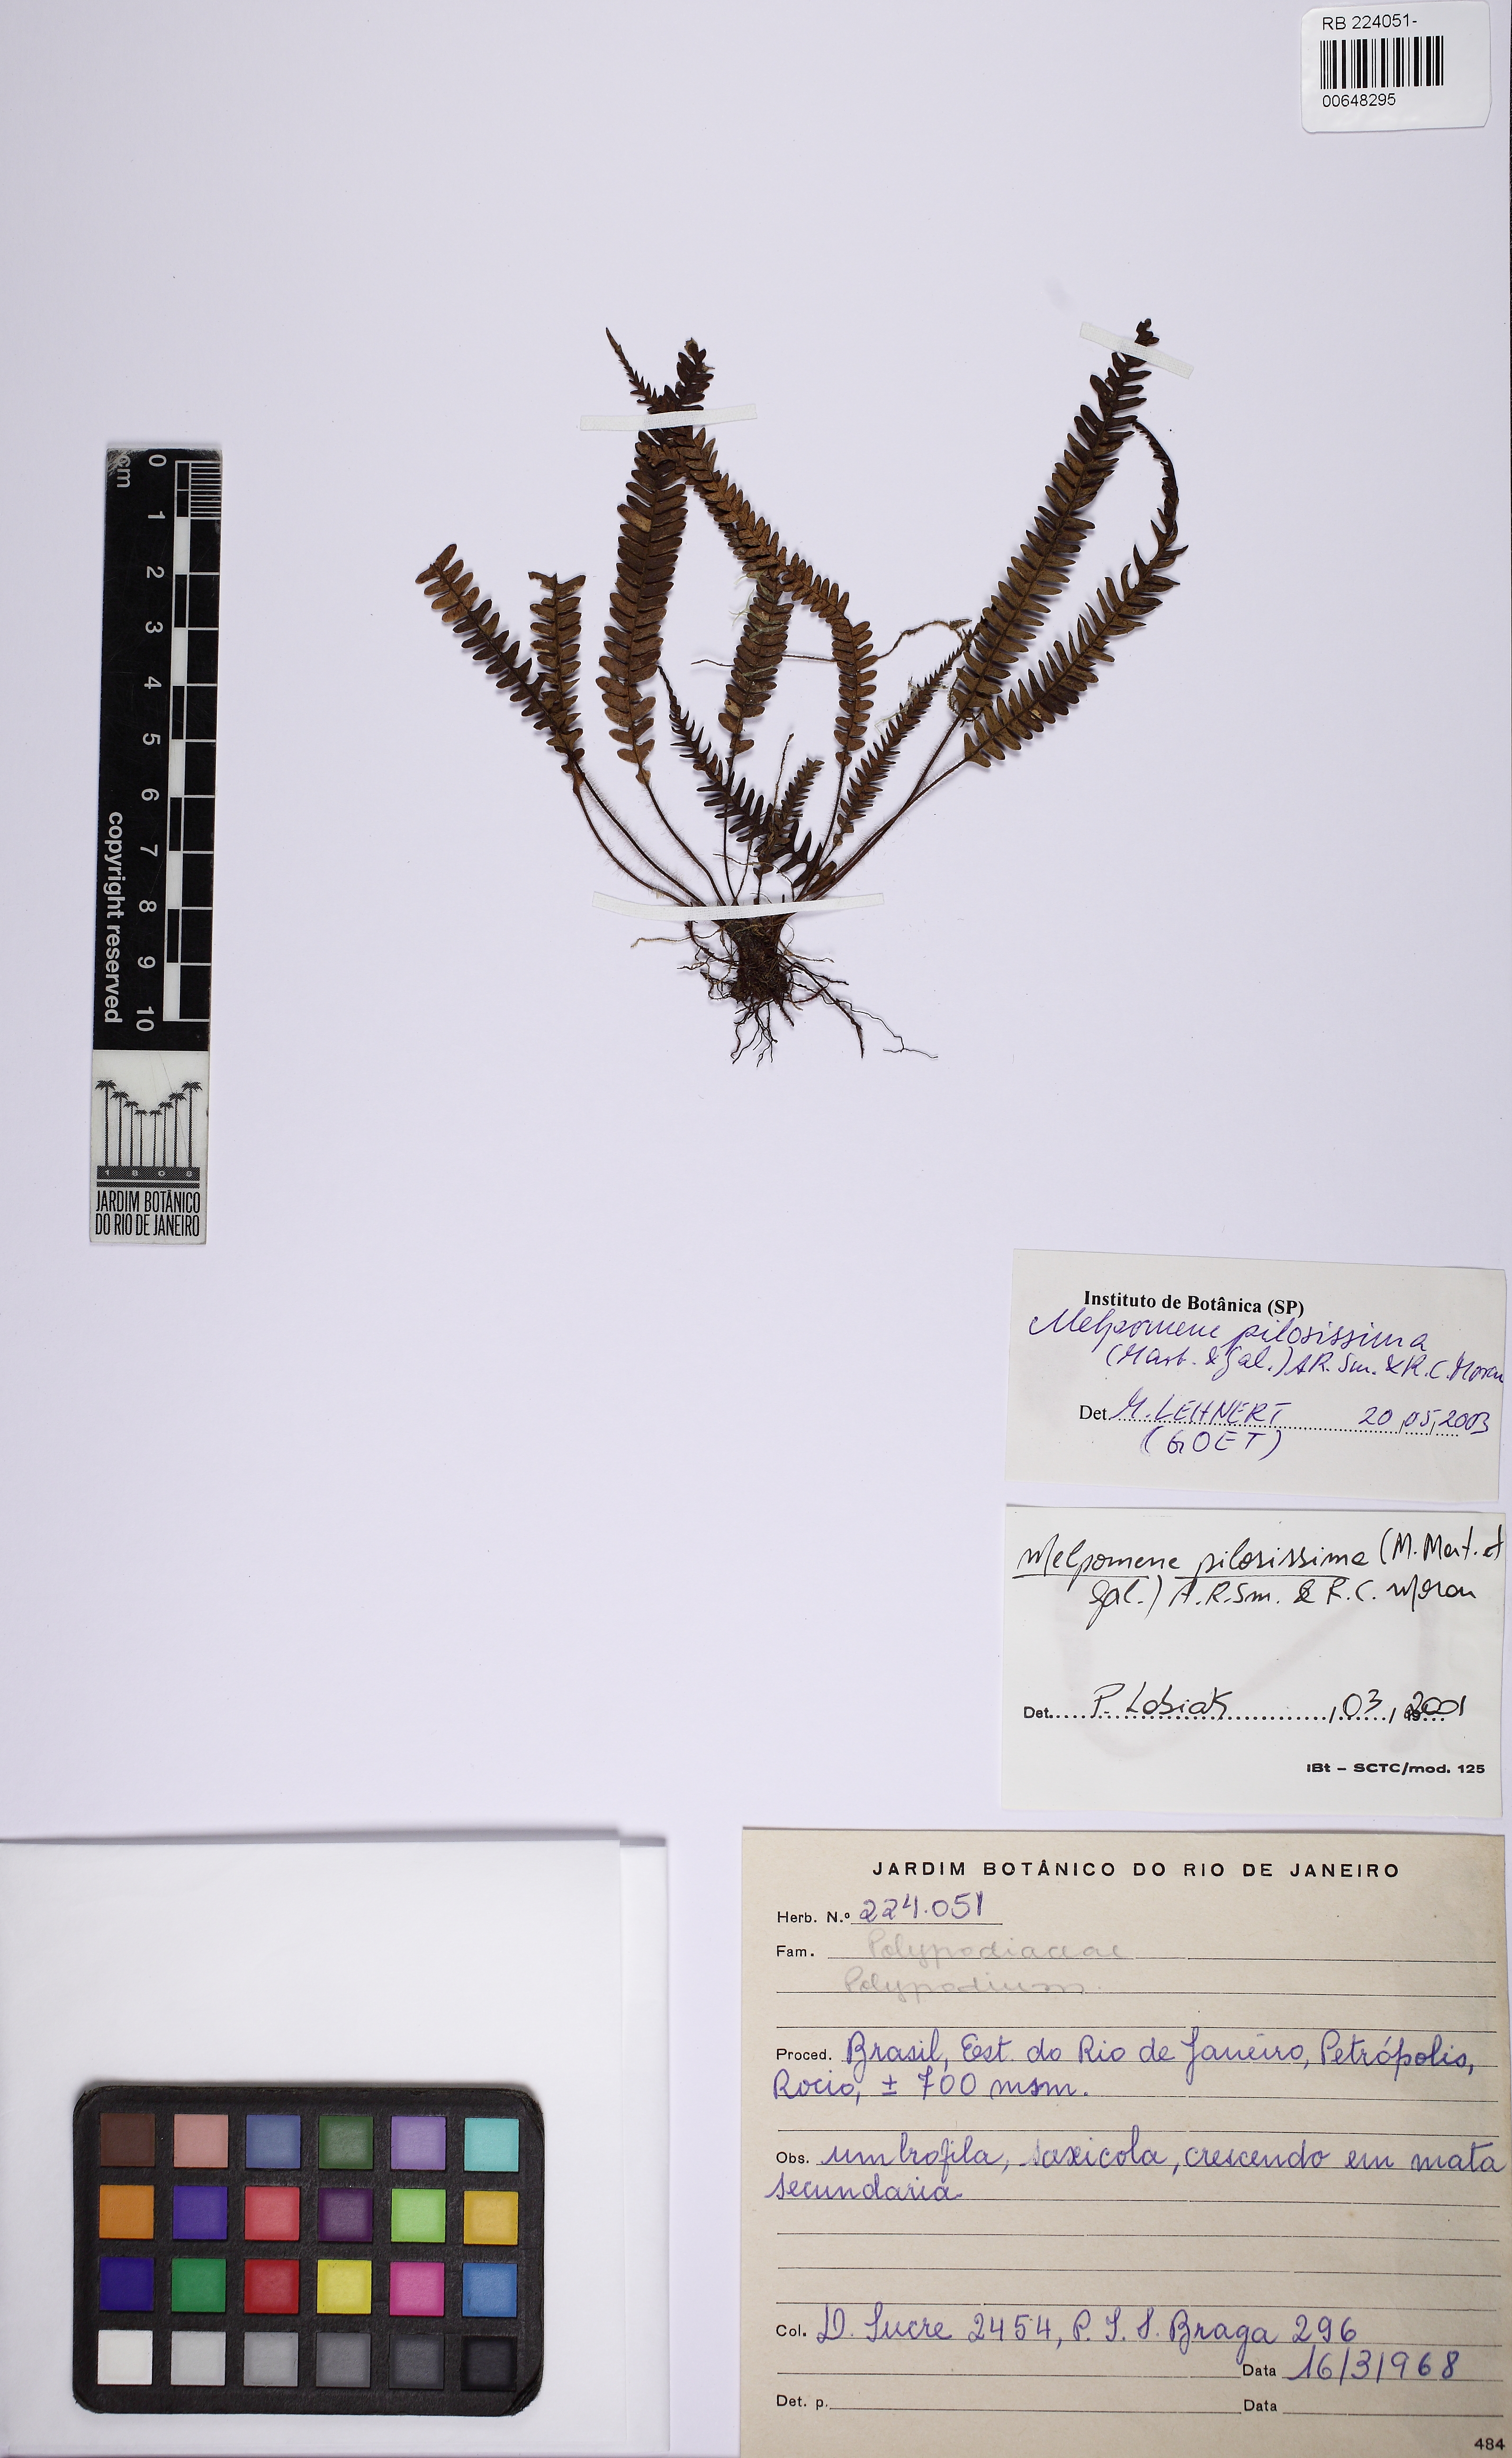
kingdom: Plantae
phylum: Tracheophyta
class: Polypodiopsida
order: Polypodiales
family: Polypodiaceae
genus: Melpomene
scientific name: Melpomene pilosissima
